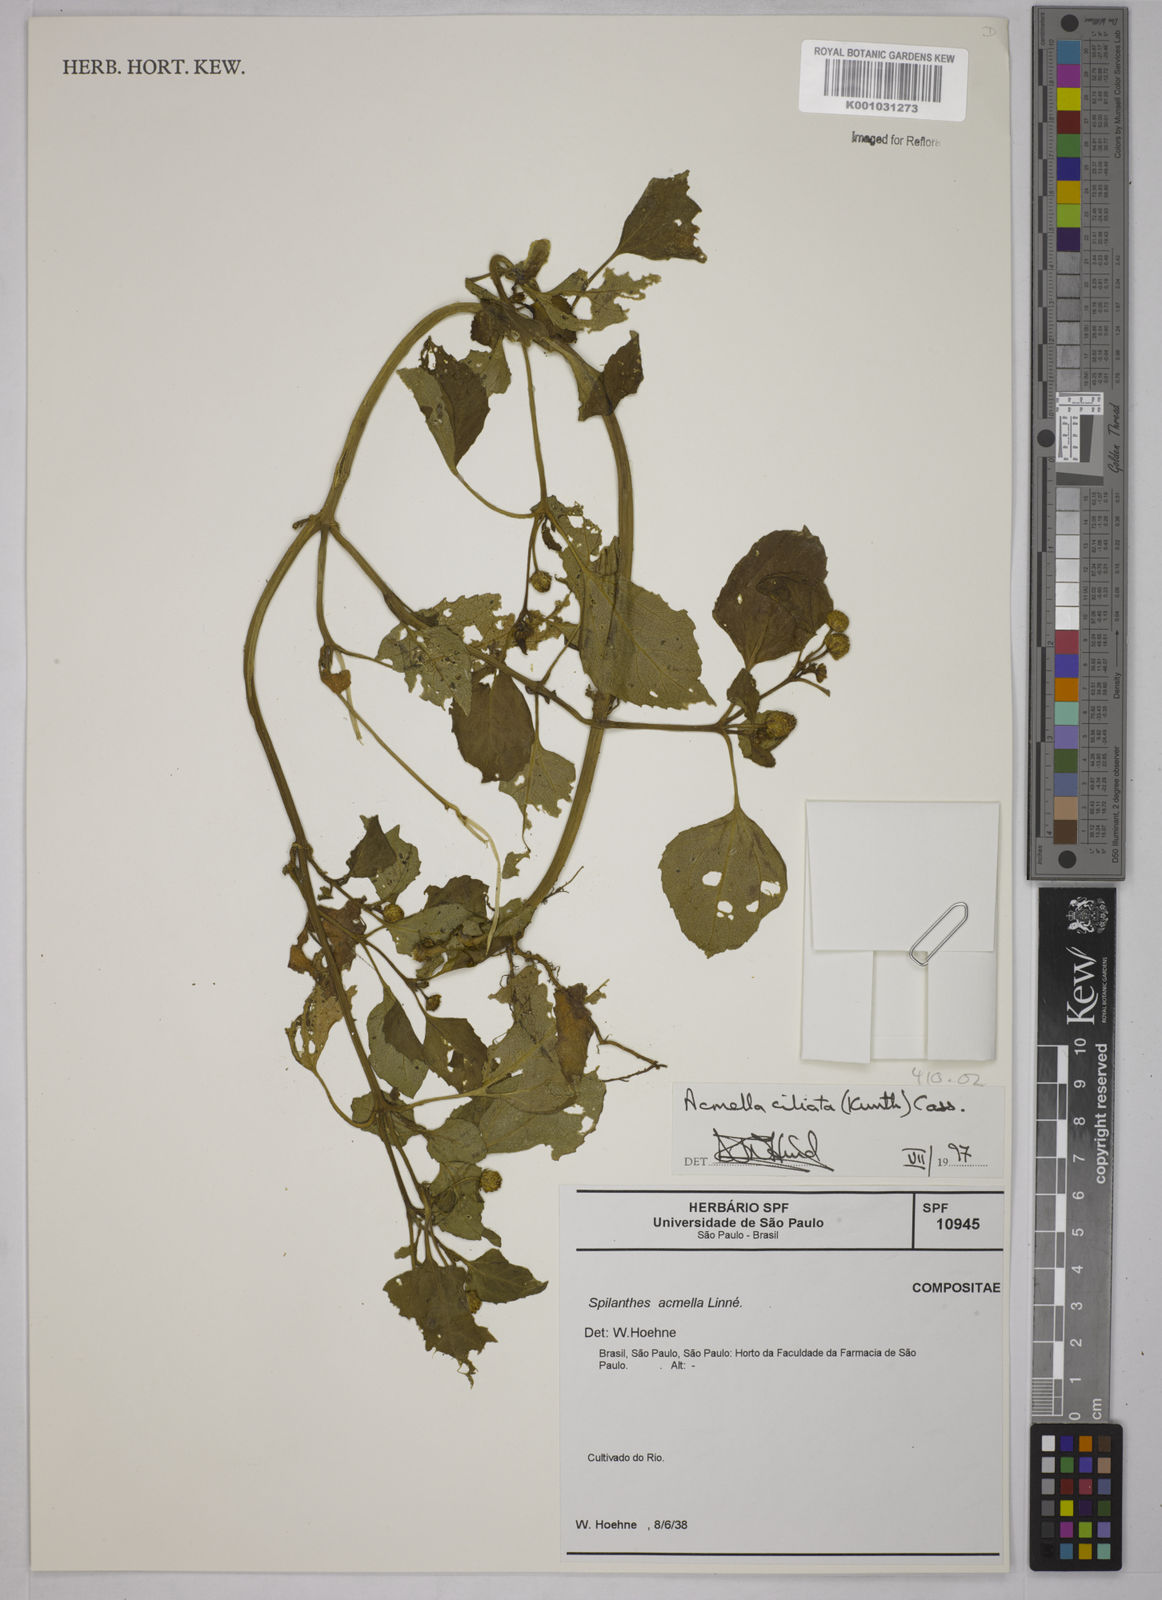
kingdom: Plantae
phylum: Tracheophyta
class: Magnoliopsida
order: Asterales
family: Asteraceae
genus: Acmella
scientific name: Acmella ciliata
